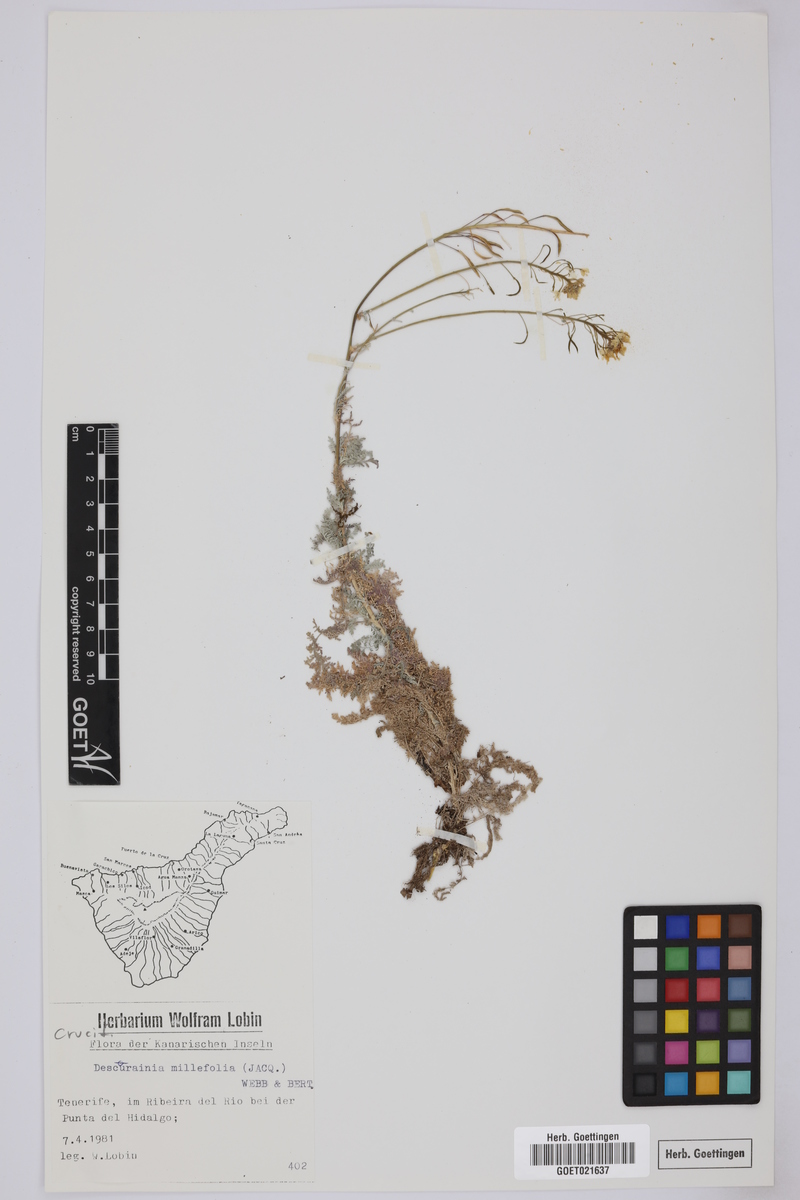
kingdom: Plantae
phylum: Tracheophyta
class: Magnoliopsida
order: Brassicales
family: Brassicaceae
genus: Descurainia
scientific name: Descurainia millefolia
